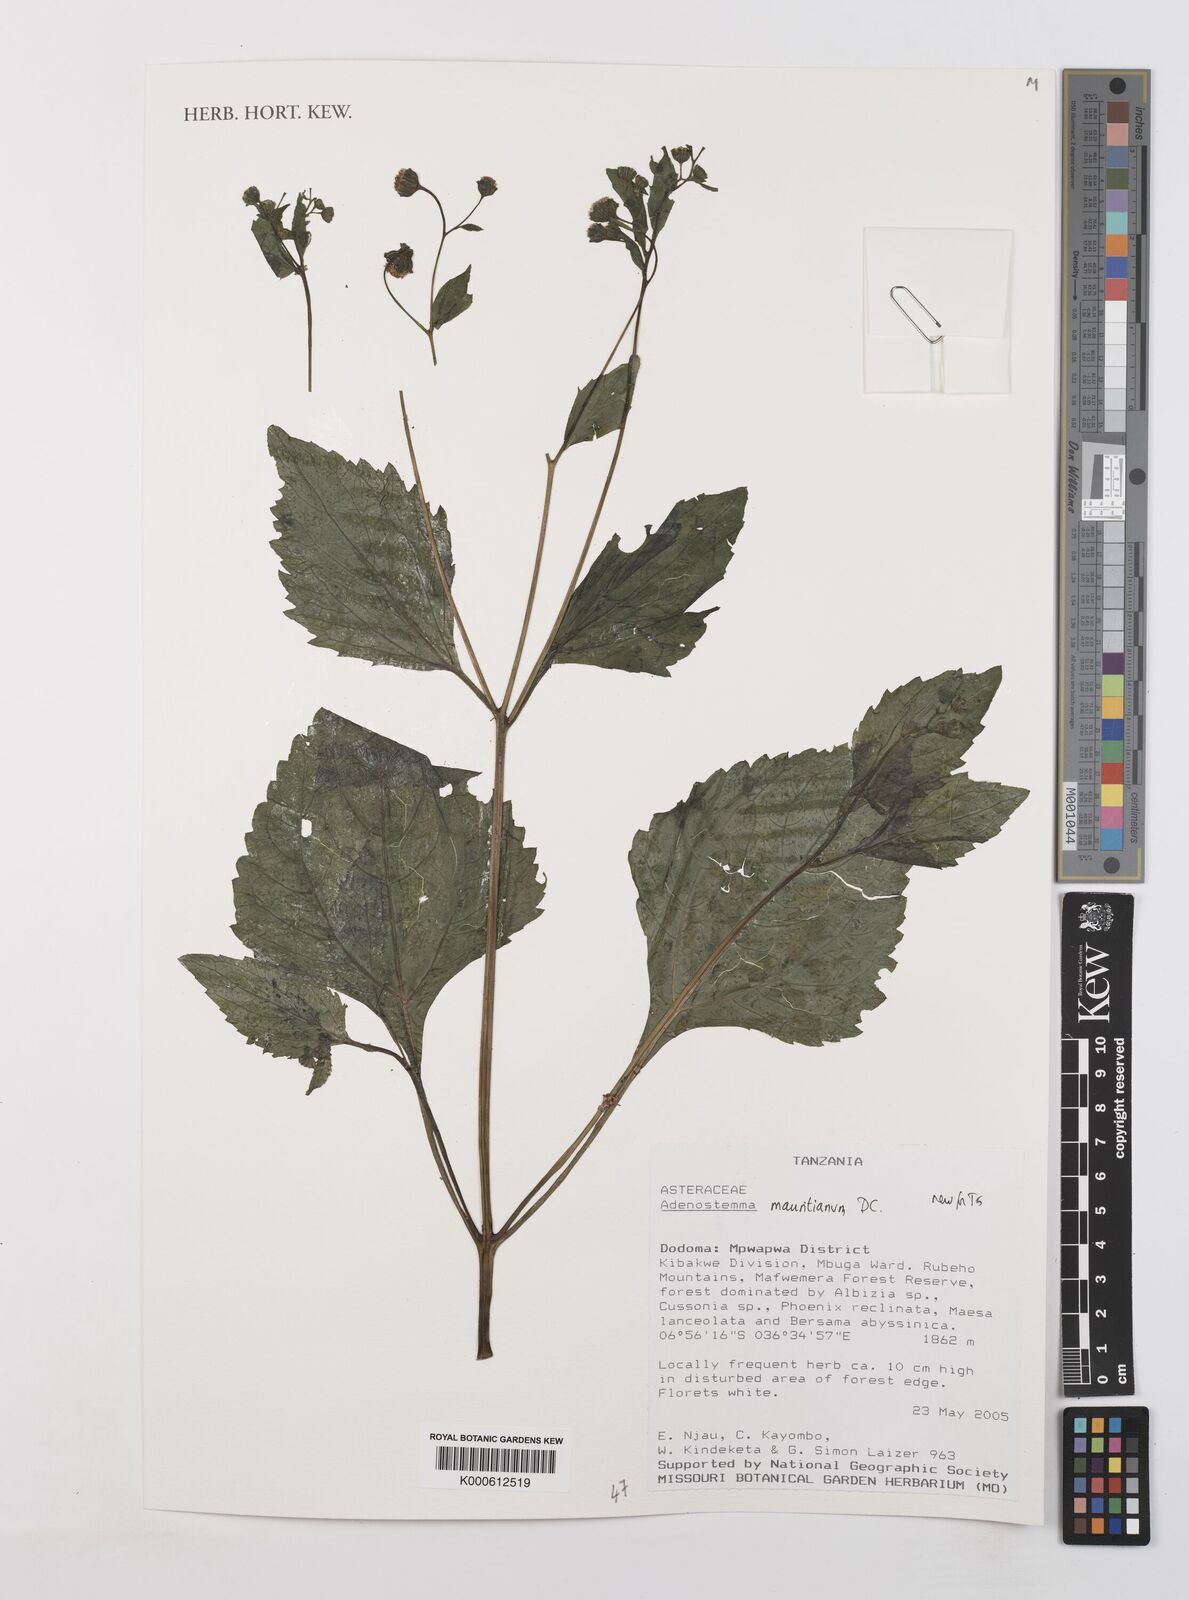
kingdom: Plantae
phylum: Tracheophyta
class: Magnoliopsida
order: Asterales
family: Asteraceae
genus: Adenostemma
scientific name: Adenostemma mauritianum
